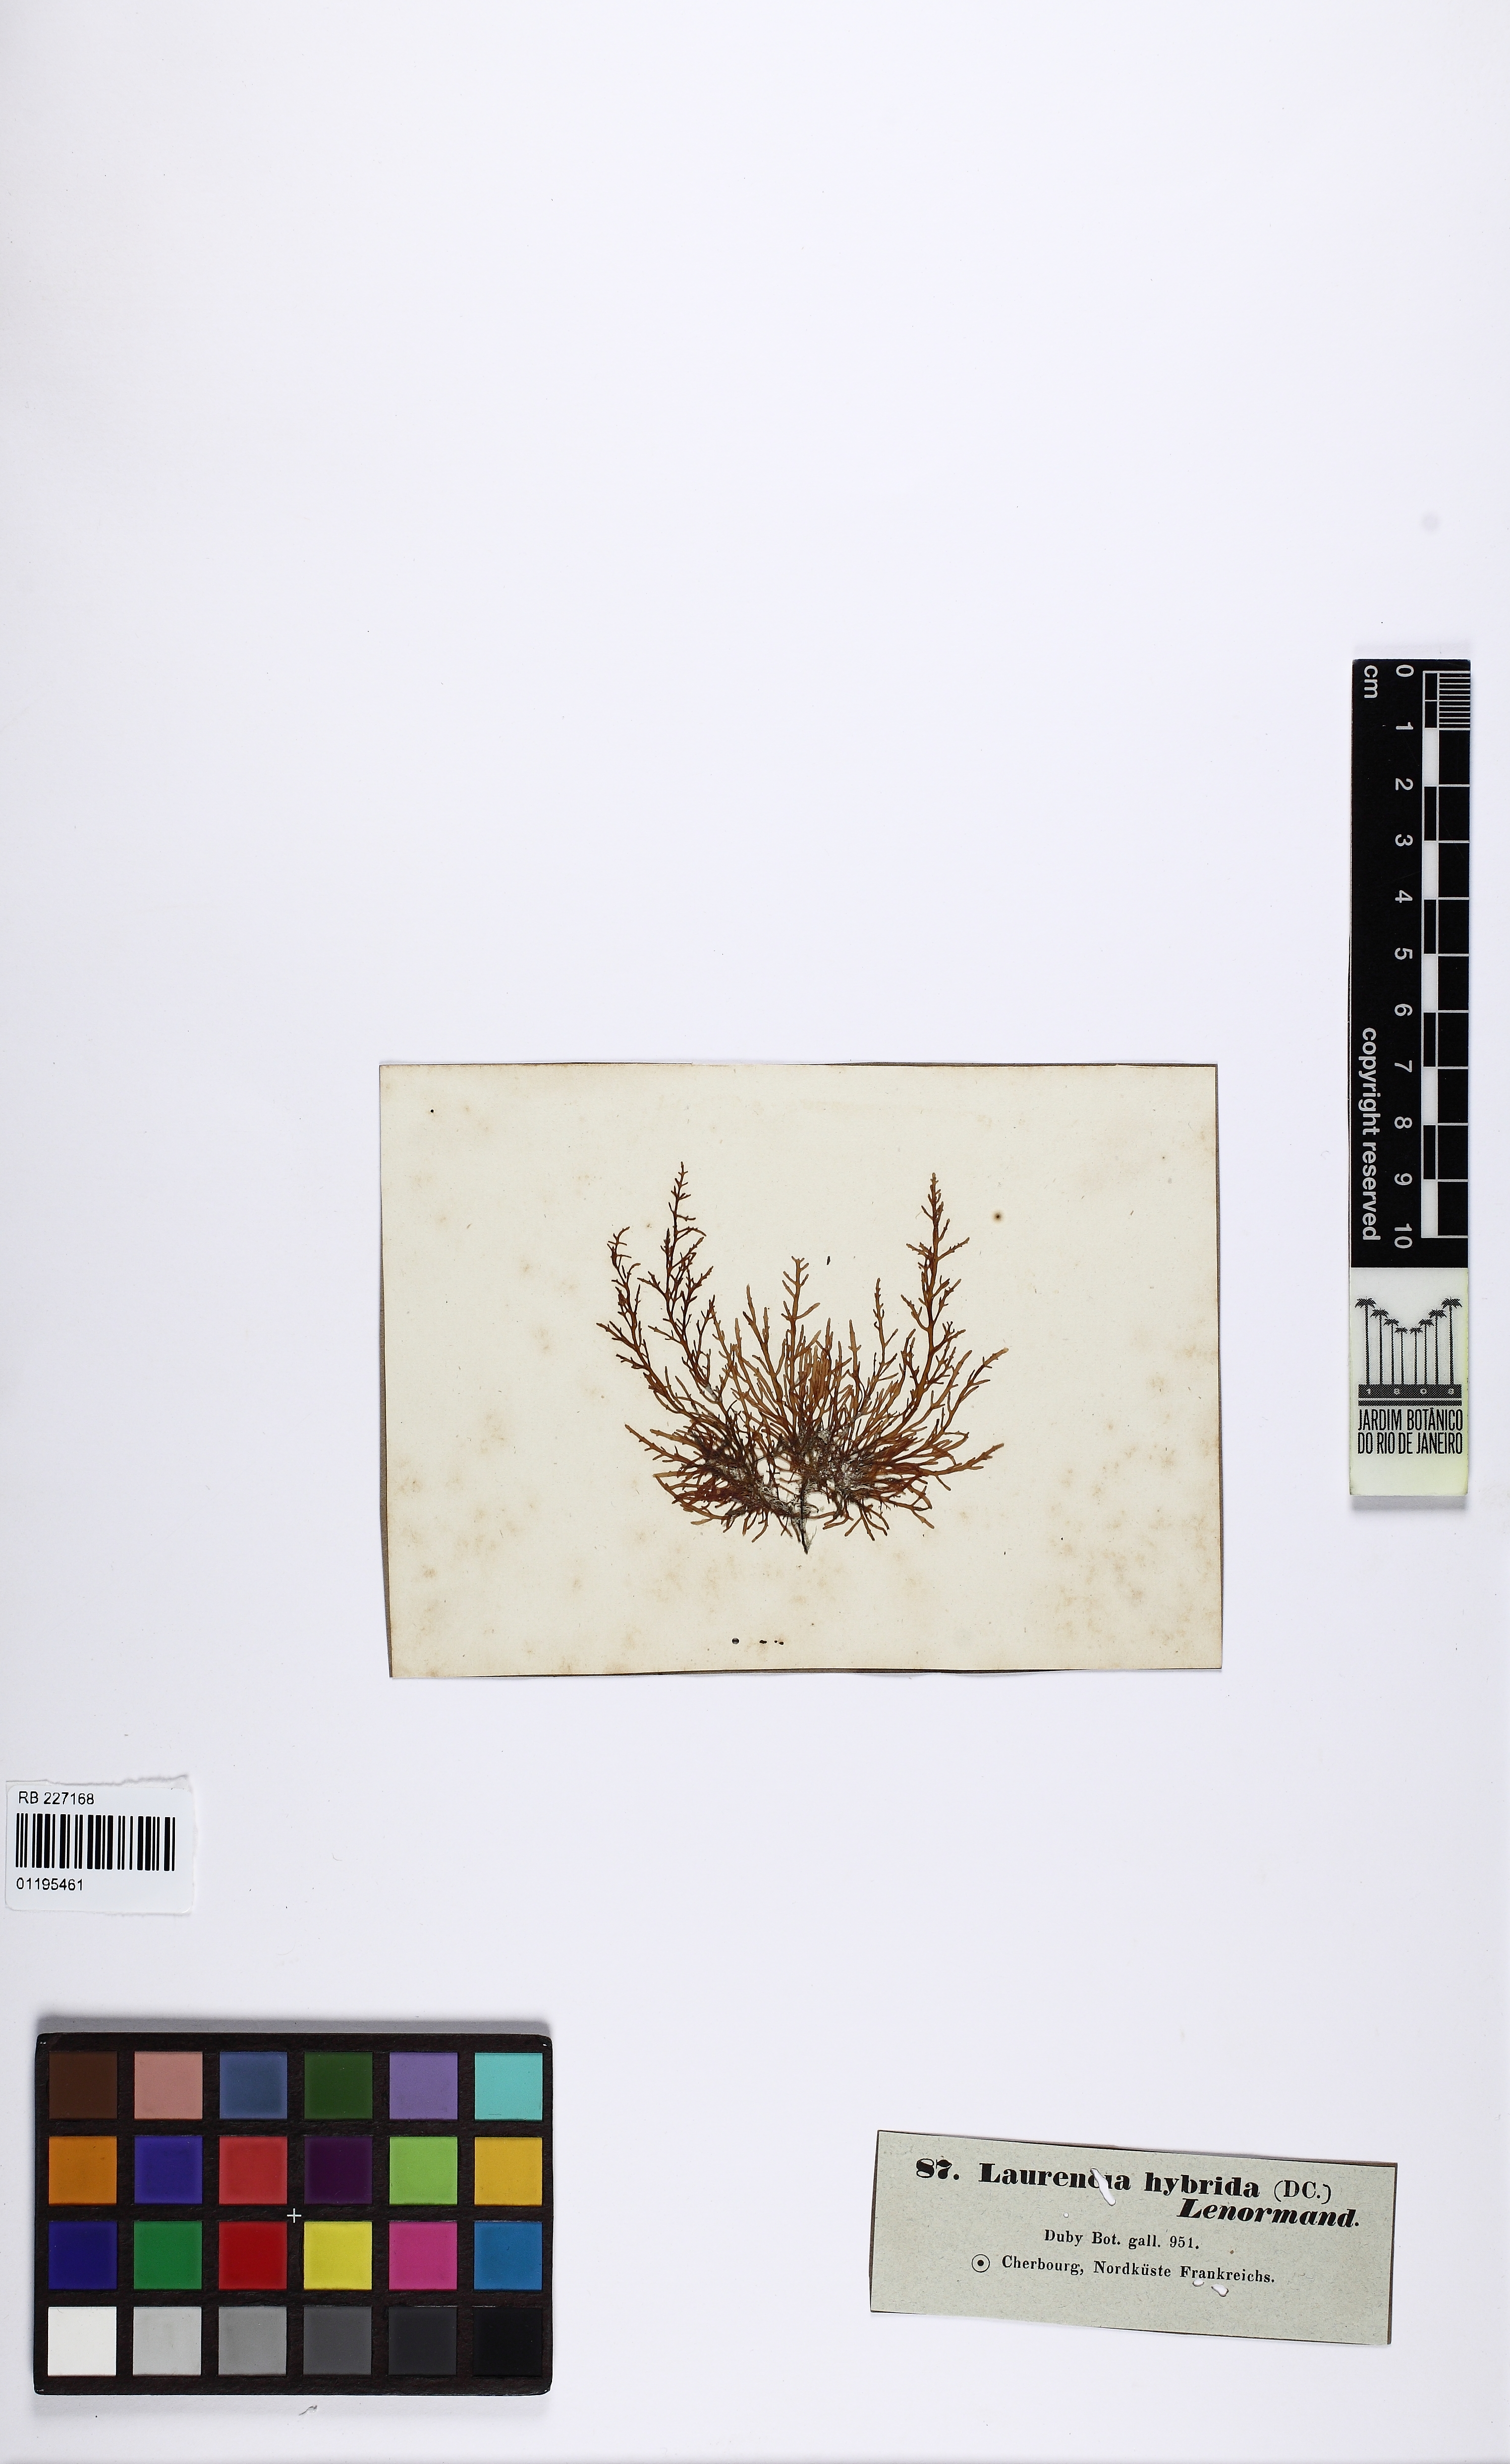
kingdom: Plantae
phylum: Rhodophyta
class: Florideophyceae
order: Ceramiales
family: Rhodomelaceae
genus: Osmundea
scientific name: Osmundea hybrida
